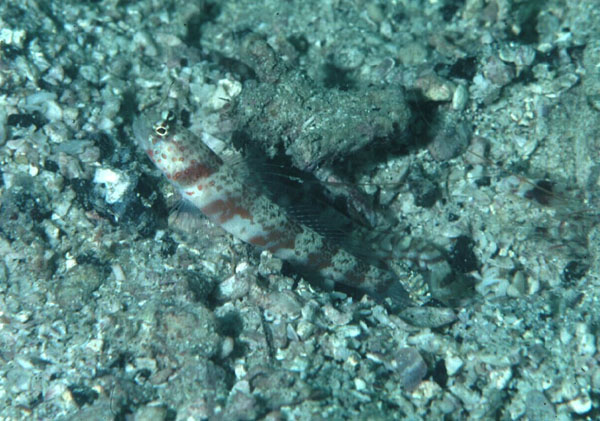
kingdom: Animalia
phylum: Chordata
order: Perciformes
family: Gobiidae
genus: Amblyeleotris
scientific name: Amblyeleotris periophthalma
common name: Periophthalma prawn-goby
